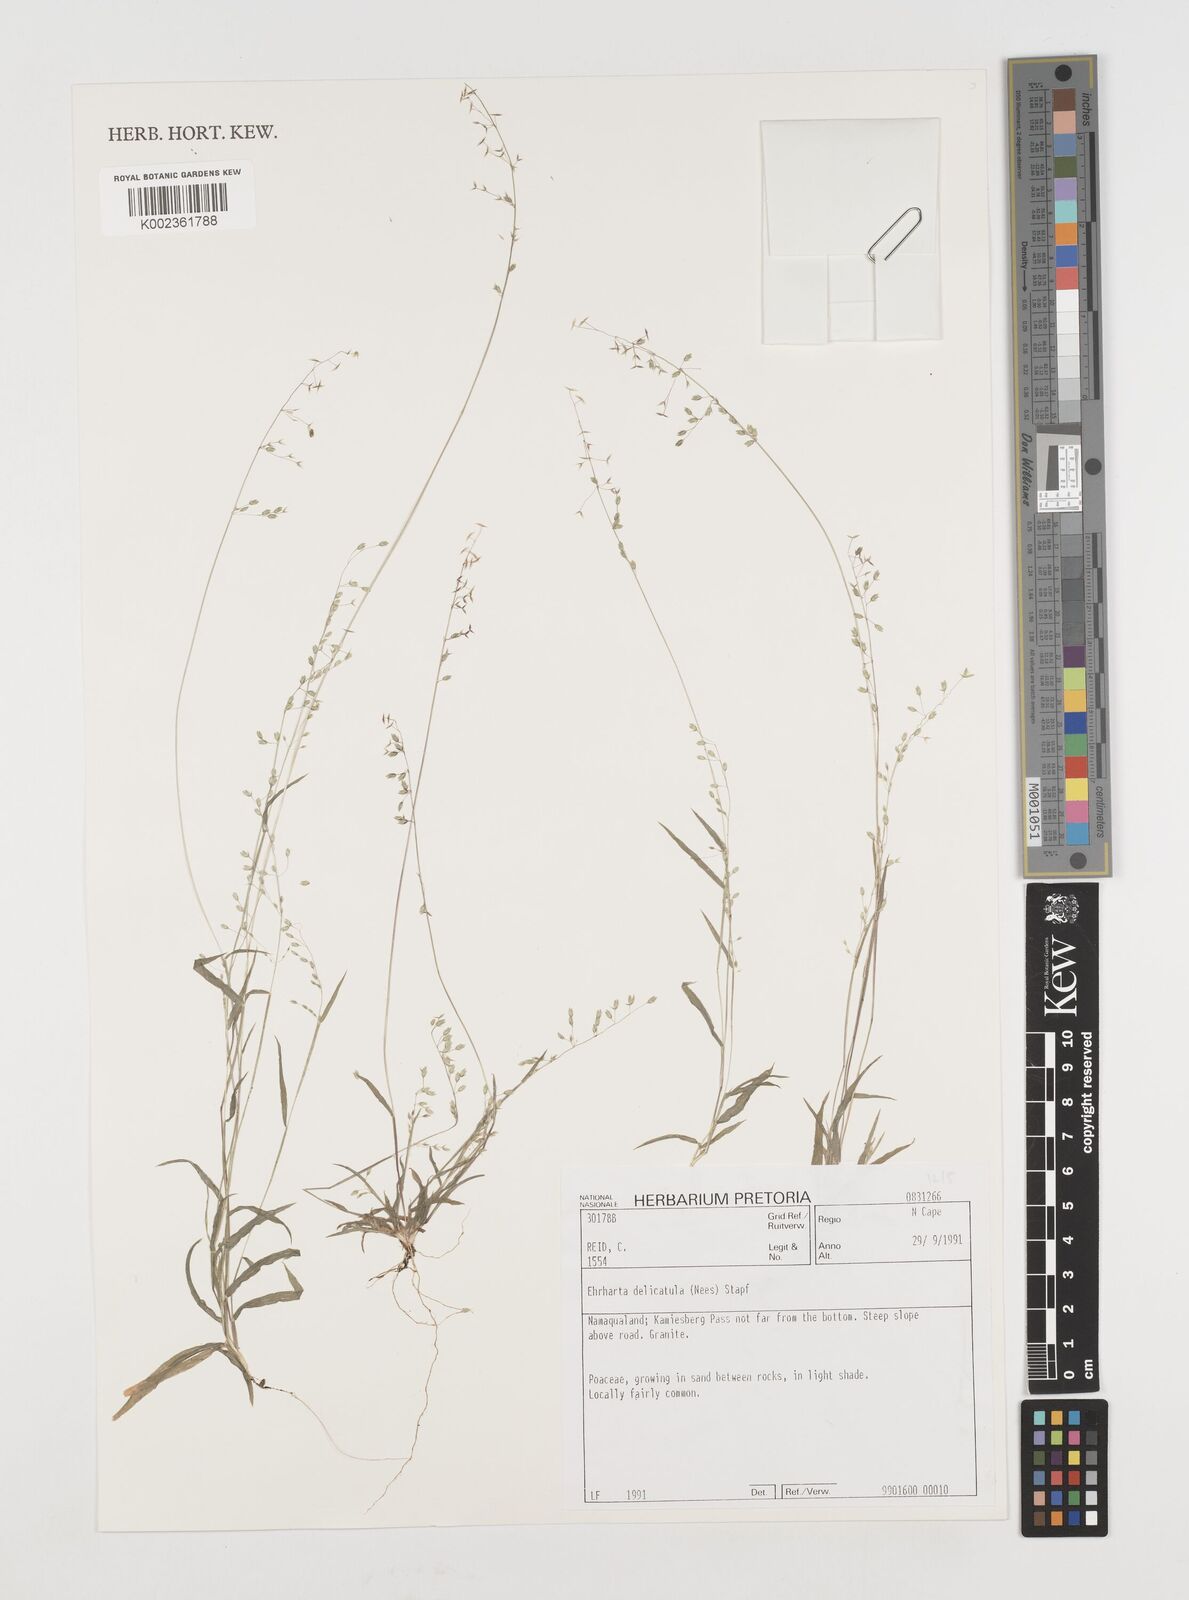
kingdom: Plantae
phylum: Tracheophyta
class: Liliopsida
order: Poales
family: Poaceae
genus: Ehrharta
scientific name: Ehrharta delicatula
